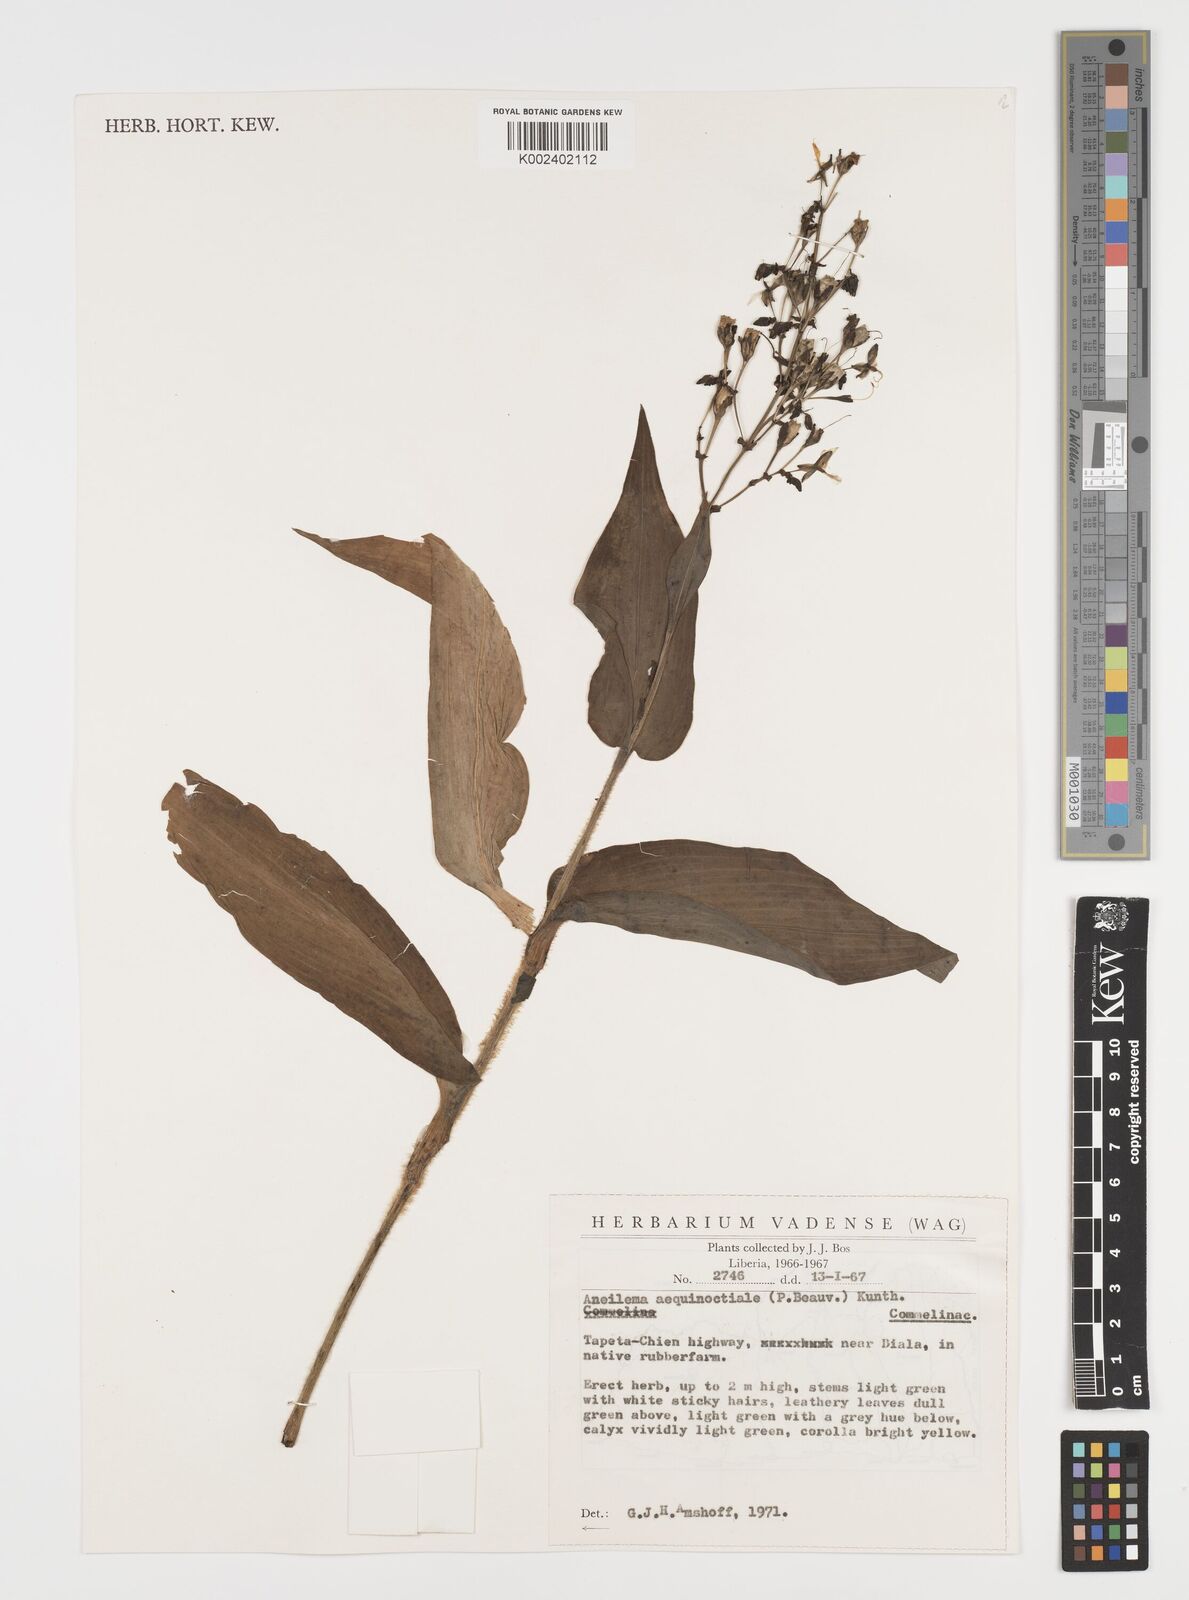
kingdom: Plantae
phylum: Tracheophyta
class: Liliopsida
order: Commelinales
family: Commelinaceae
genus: Aneilema
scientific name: Aneilema aequinoctiale
